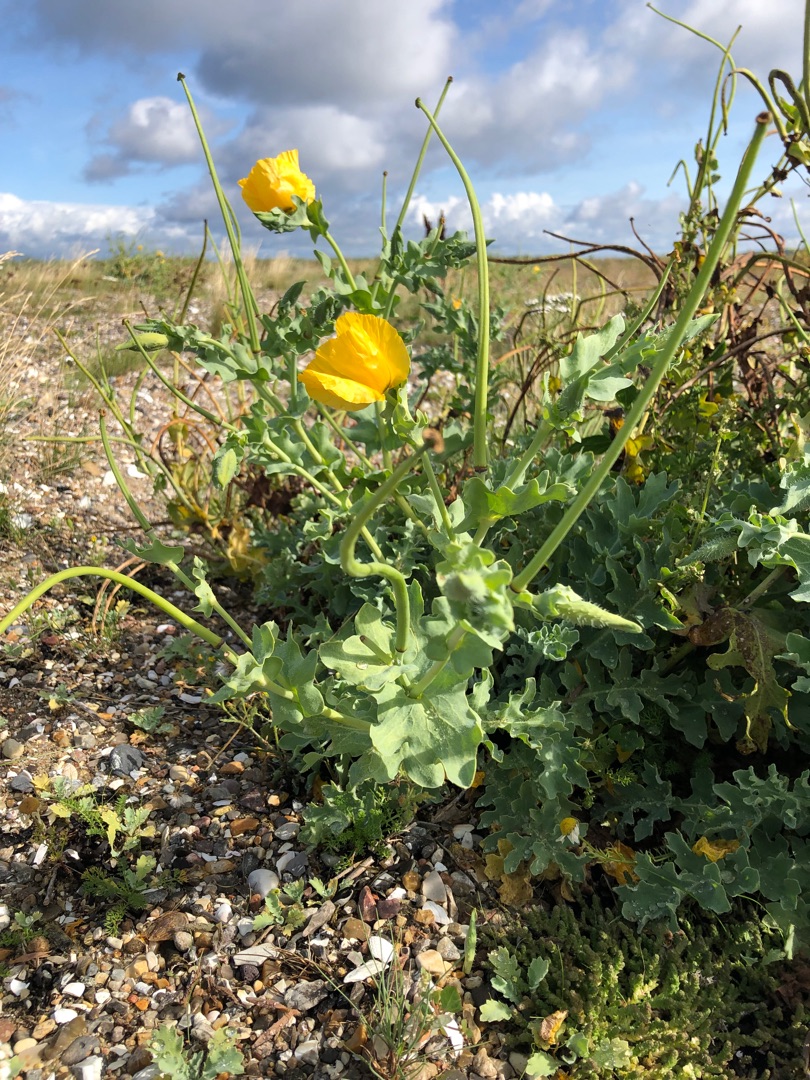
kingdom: Plantae
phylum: Tracheophyta
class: Magnoliopsida
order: Ranunculales
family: Papaveraceae
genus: Glaucium
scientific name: Glaucium flavum
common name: Hornskulpe
